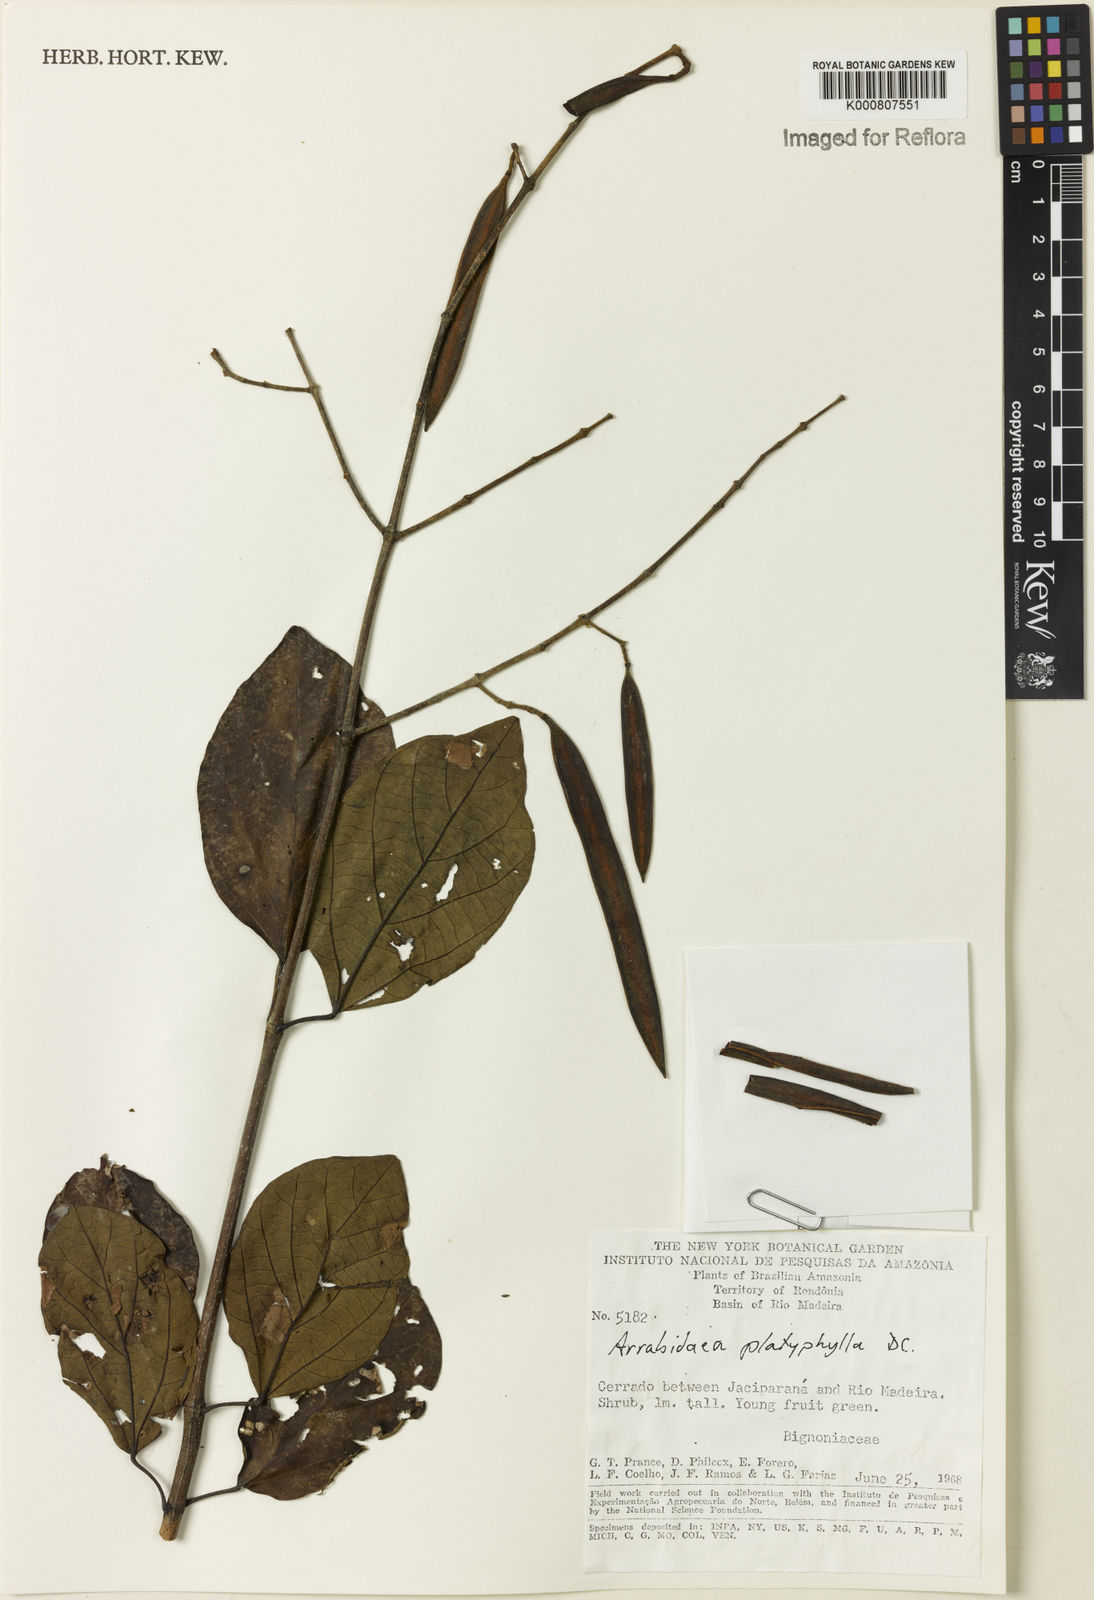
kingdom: Plantae
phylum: Tracheophyta
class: Magnoliopsida
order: Lamiales
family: Bignoniaceae
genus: Xylophragma
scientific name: Xylophragma platyphyllum
